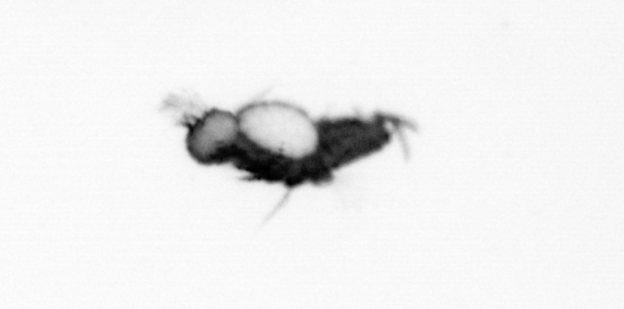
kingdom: Animalia
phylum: Annelida
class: Polychaeta
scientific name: Polychaeta
